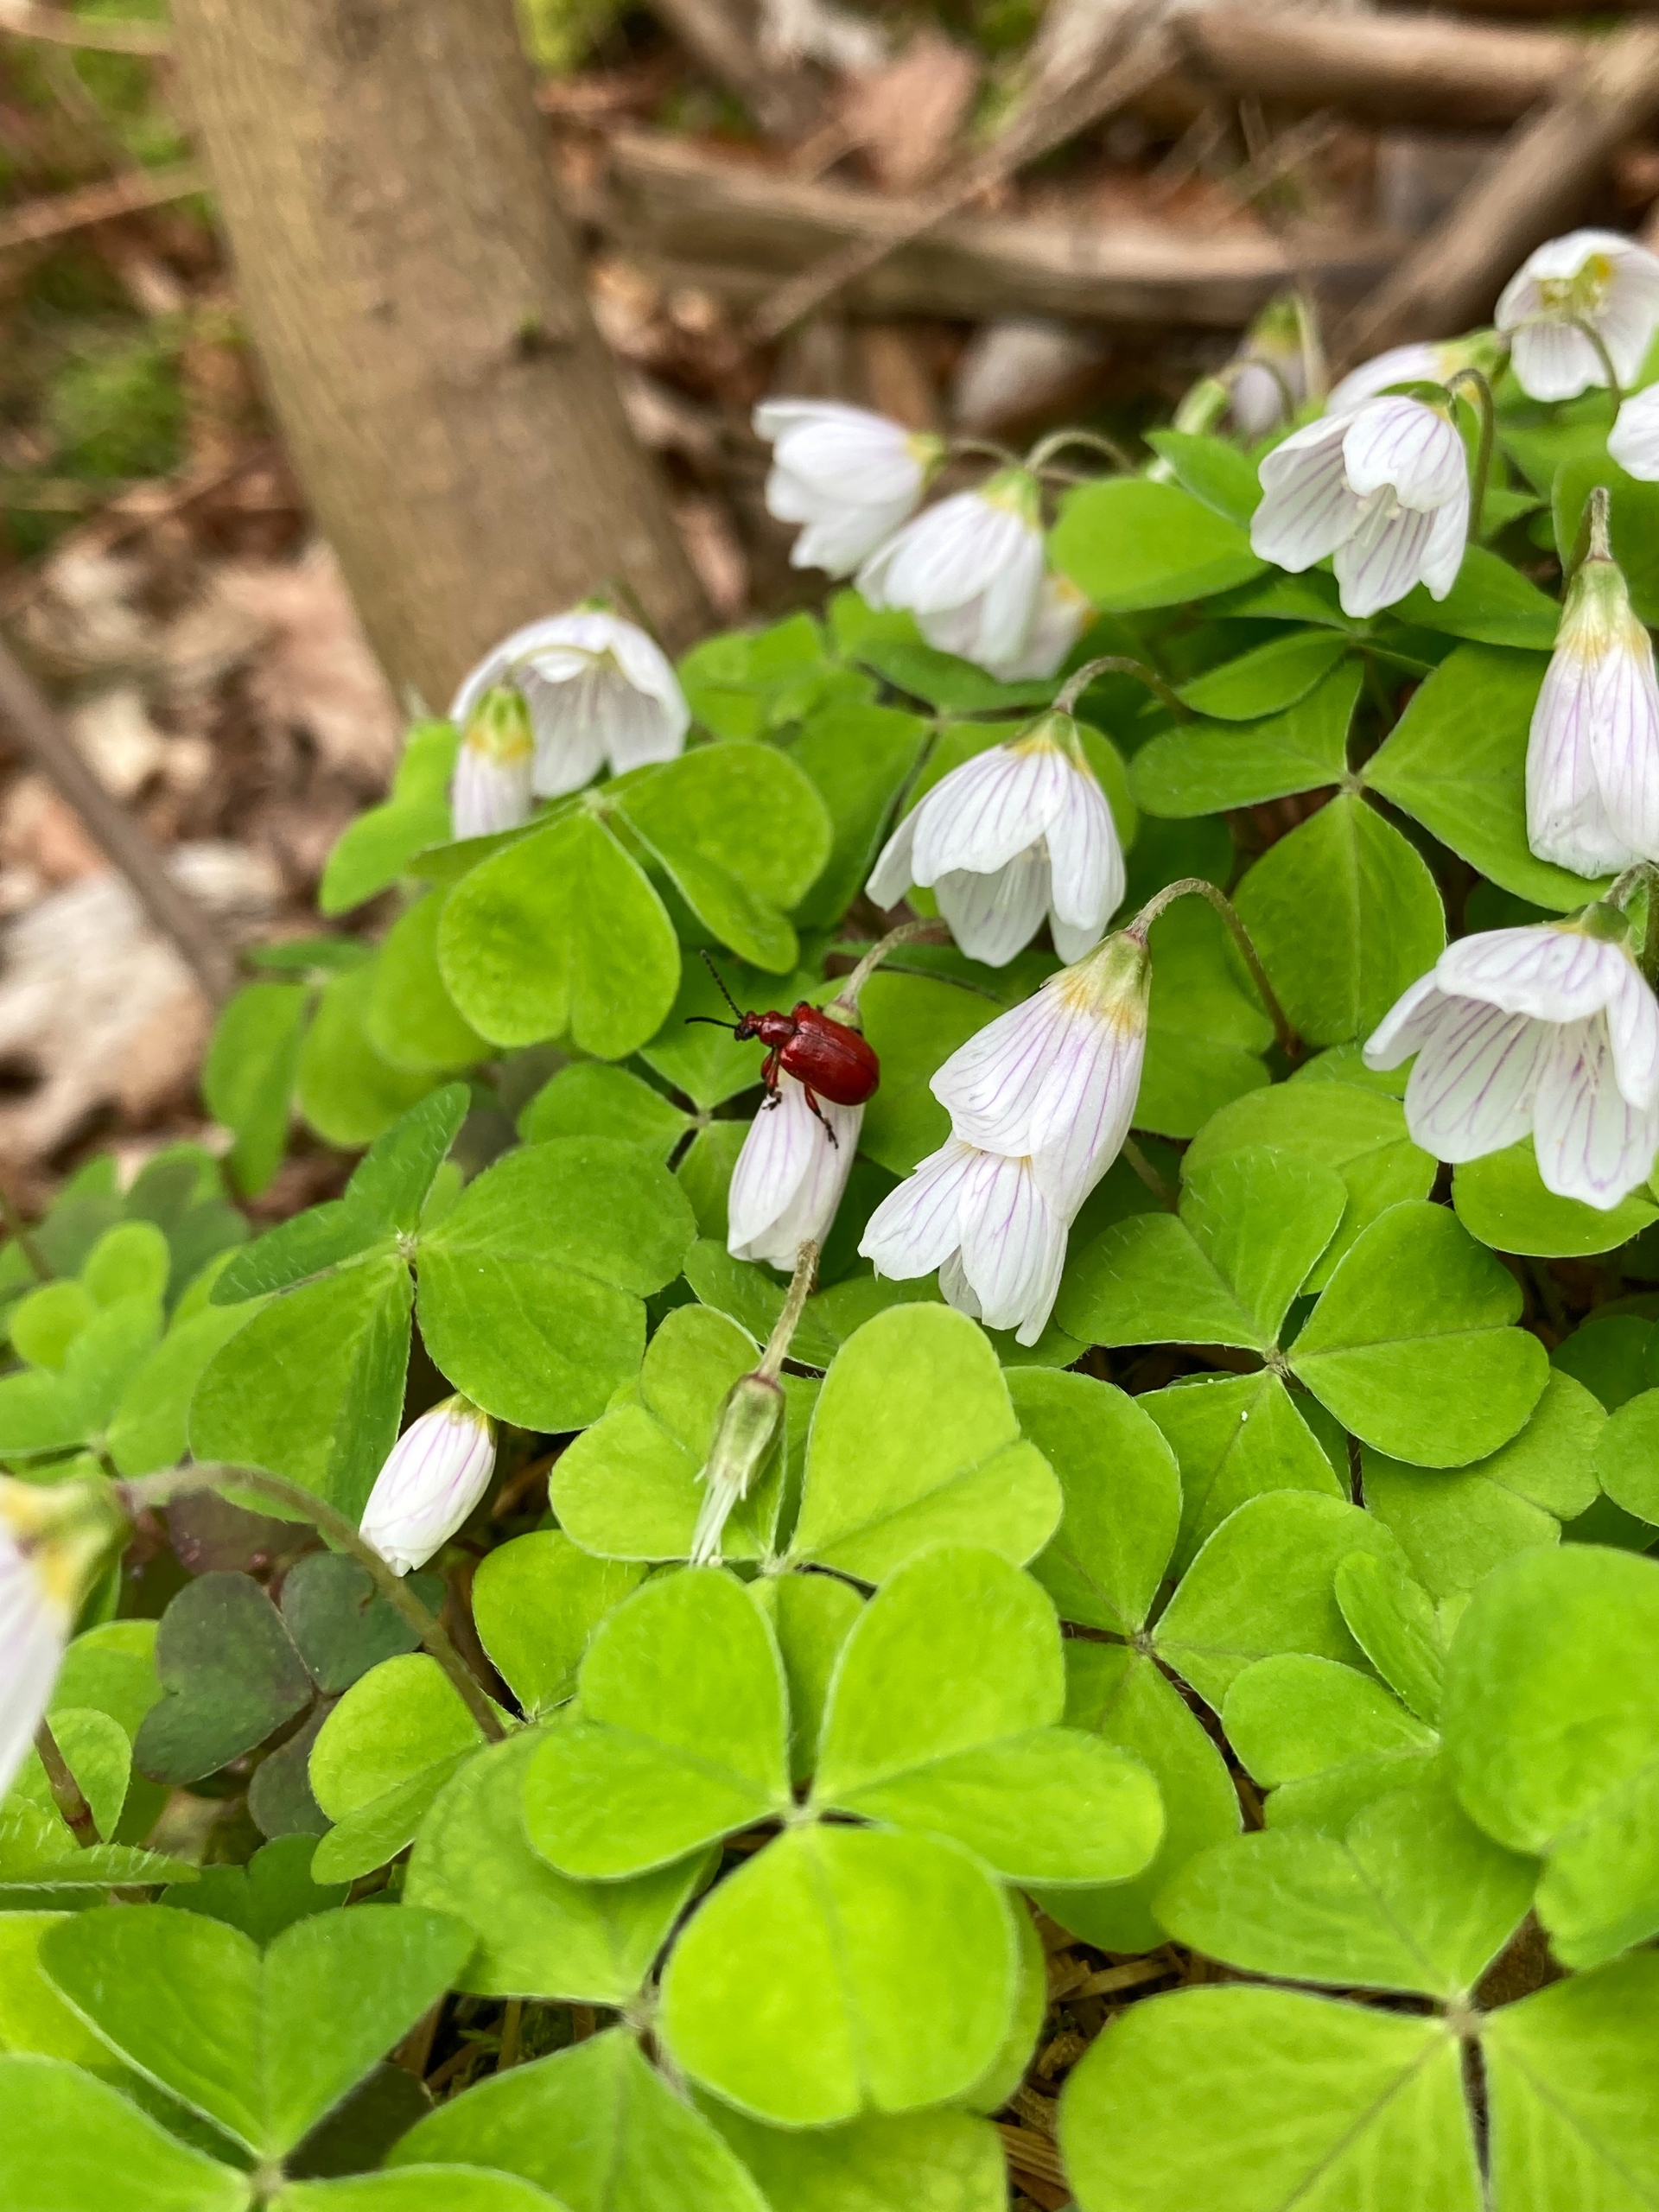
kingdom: Animalia
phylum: Arthropoda
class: Insecta
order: Coleoptera
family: Chrysomelidae
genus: Lilioceris
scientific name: Lilioceris merdigera
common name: Konvalbille
